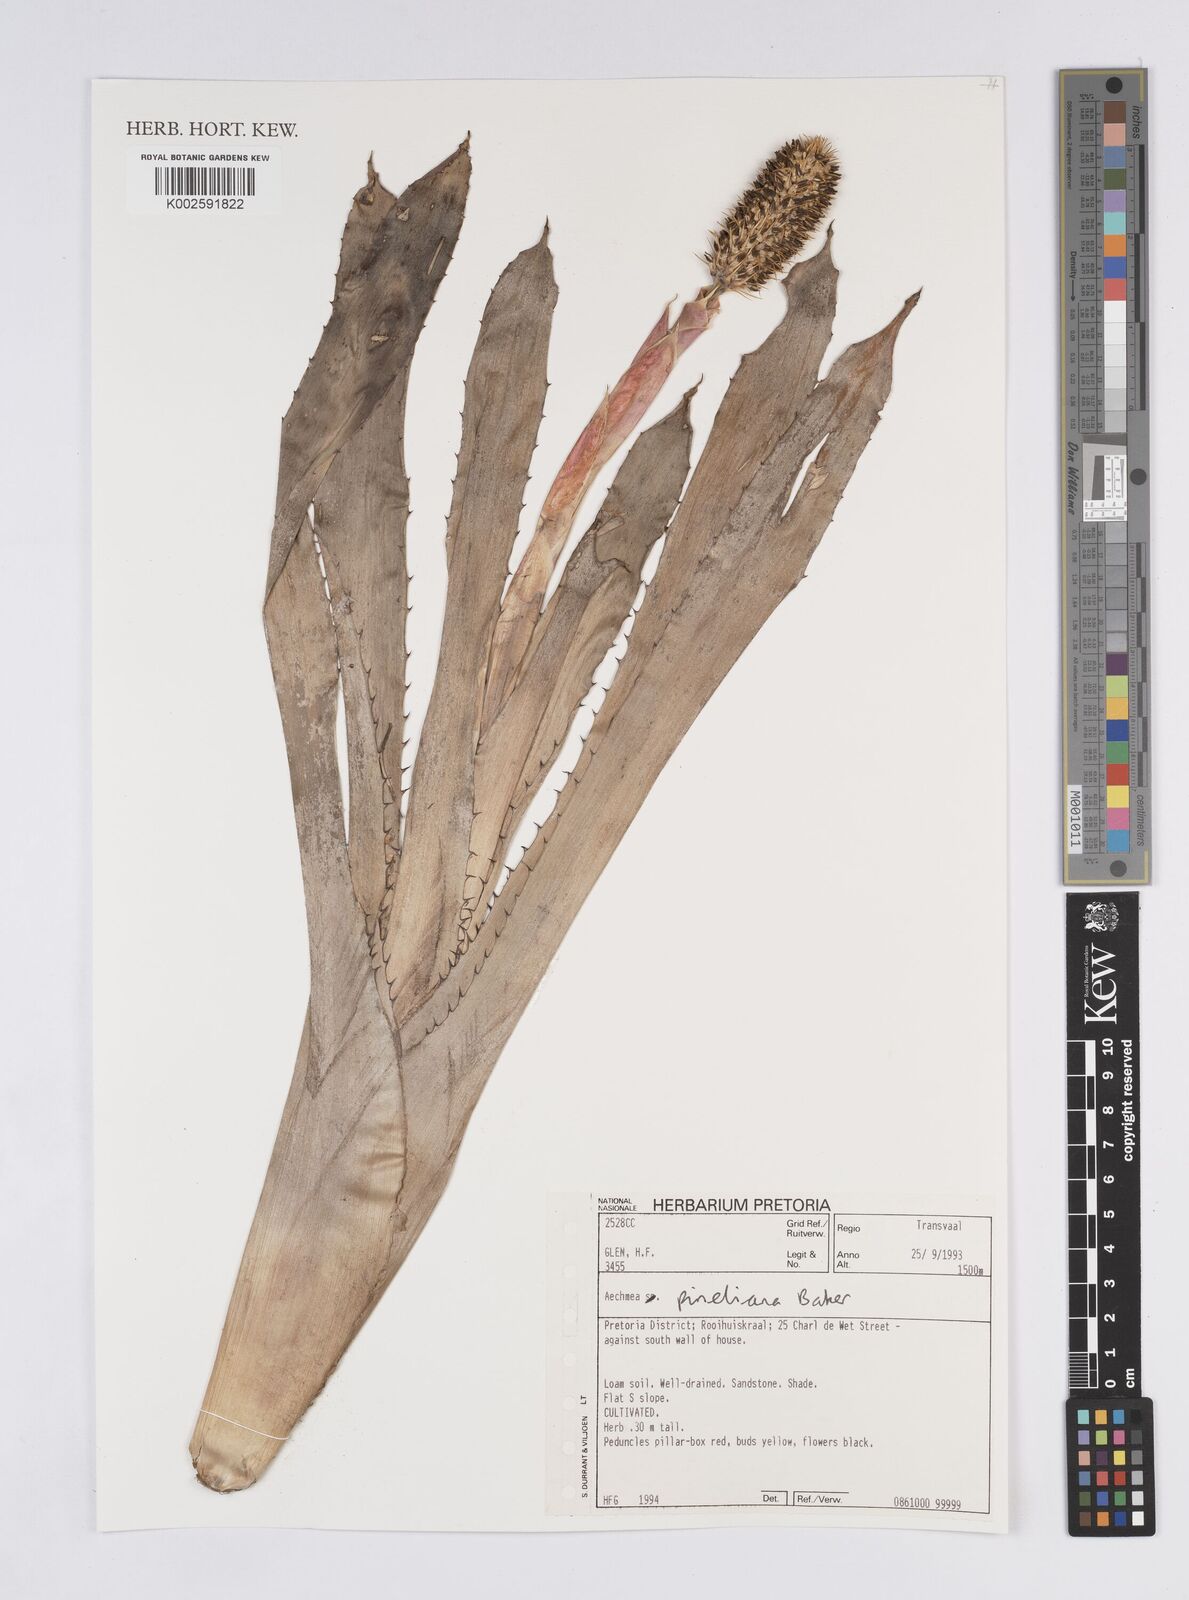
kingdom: Plantae
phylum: Tracheophyta
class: Liliopsida
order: Poales
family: Bromeliaceae
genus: Aechmea
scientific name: Aechmea pineliana
